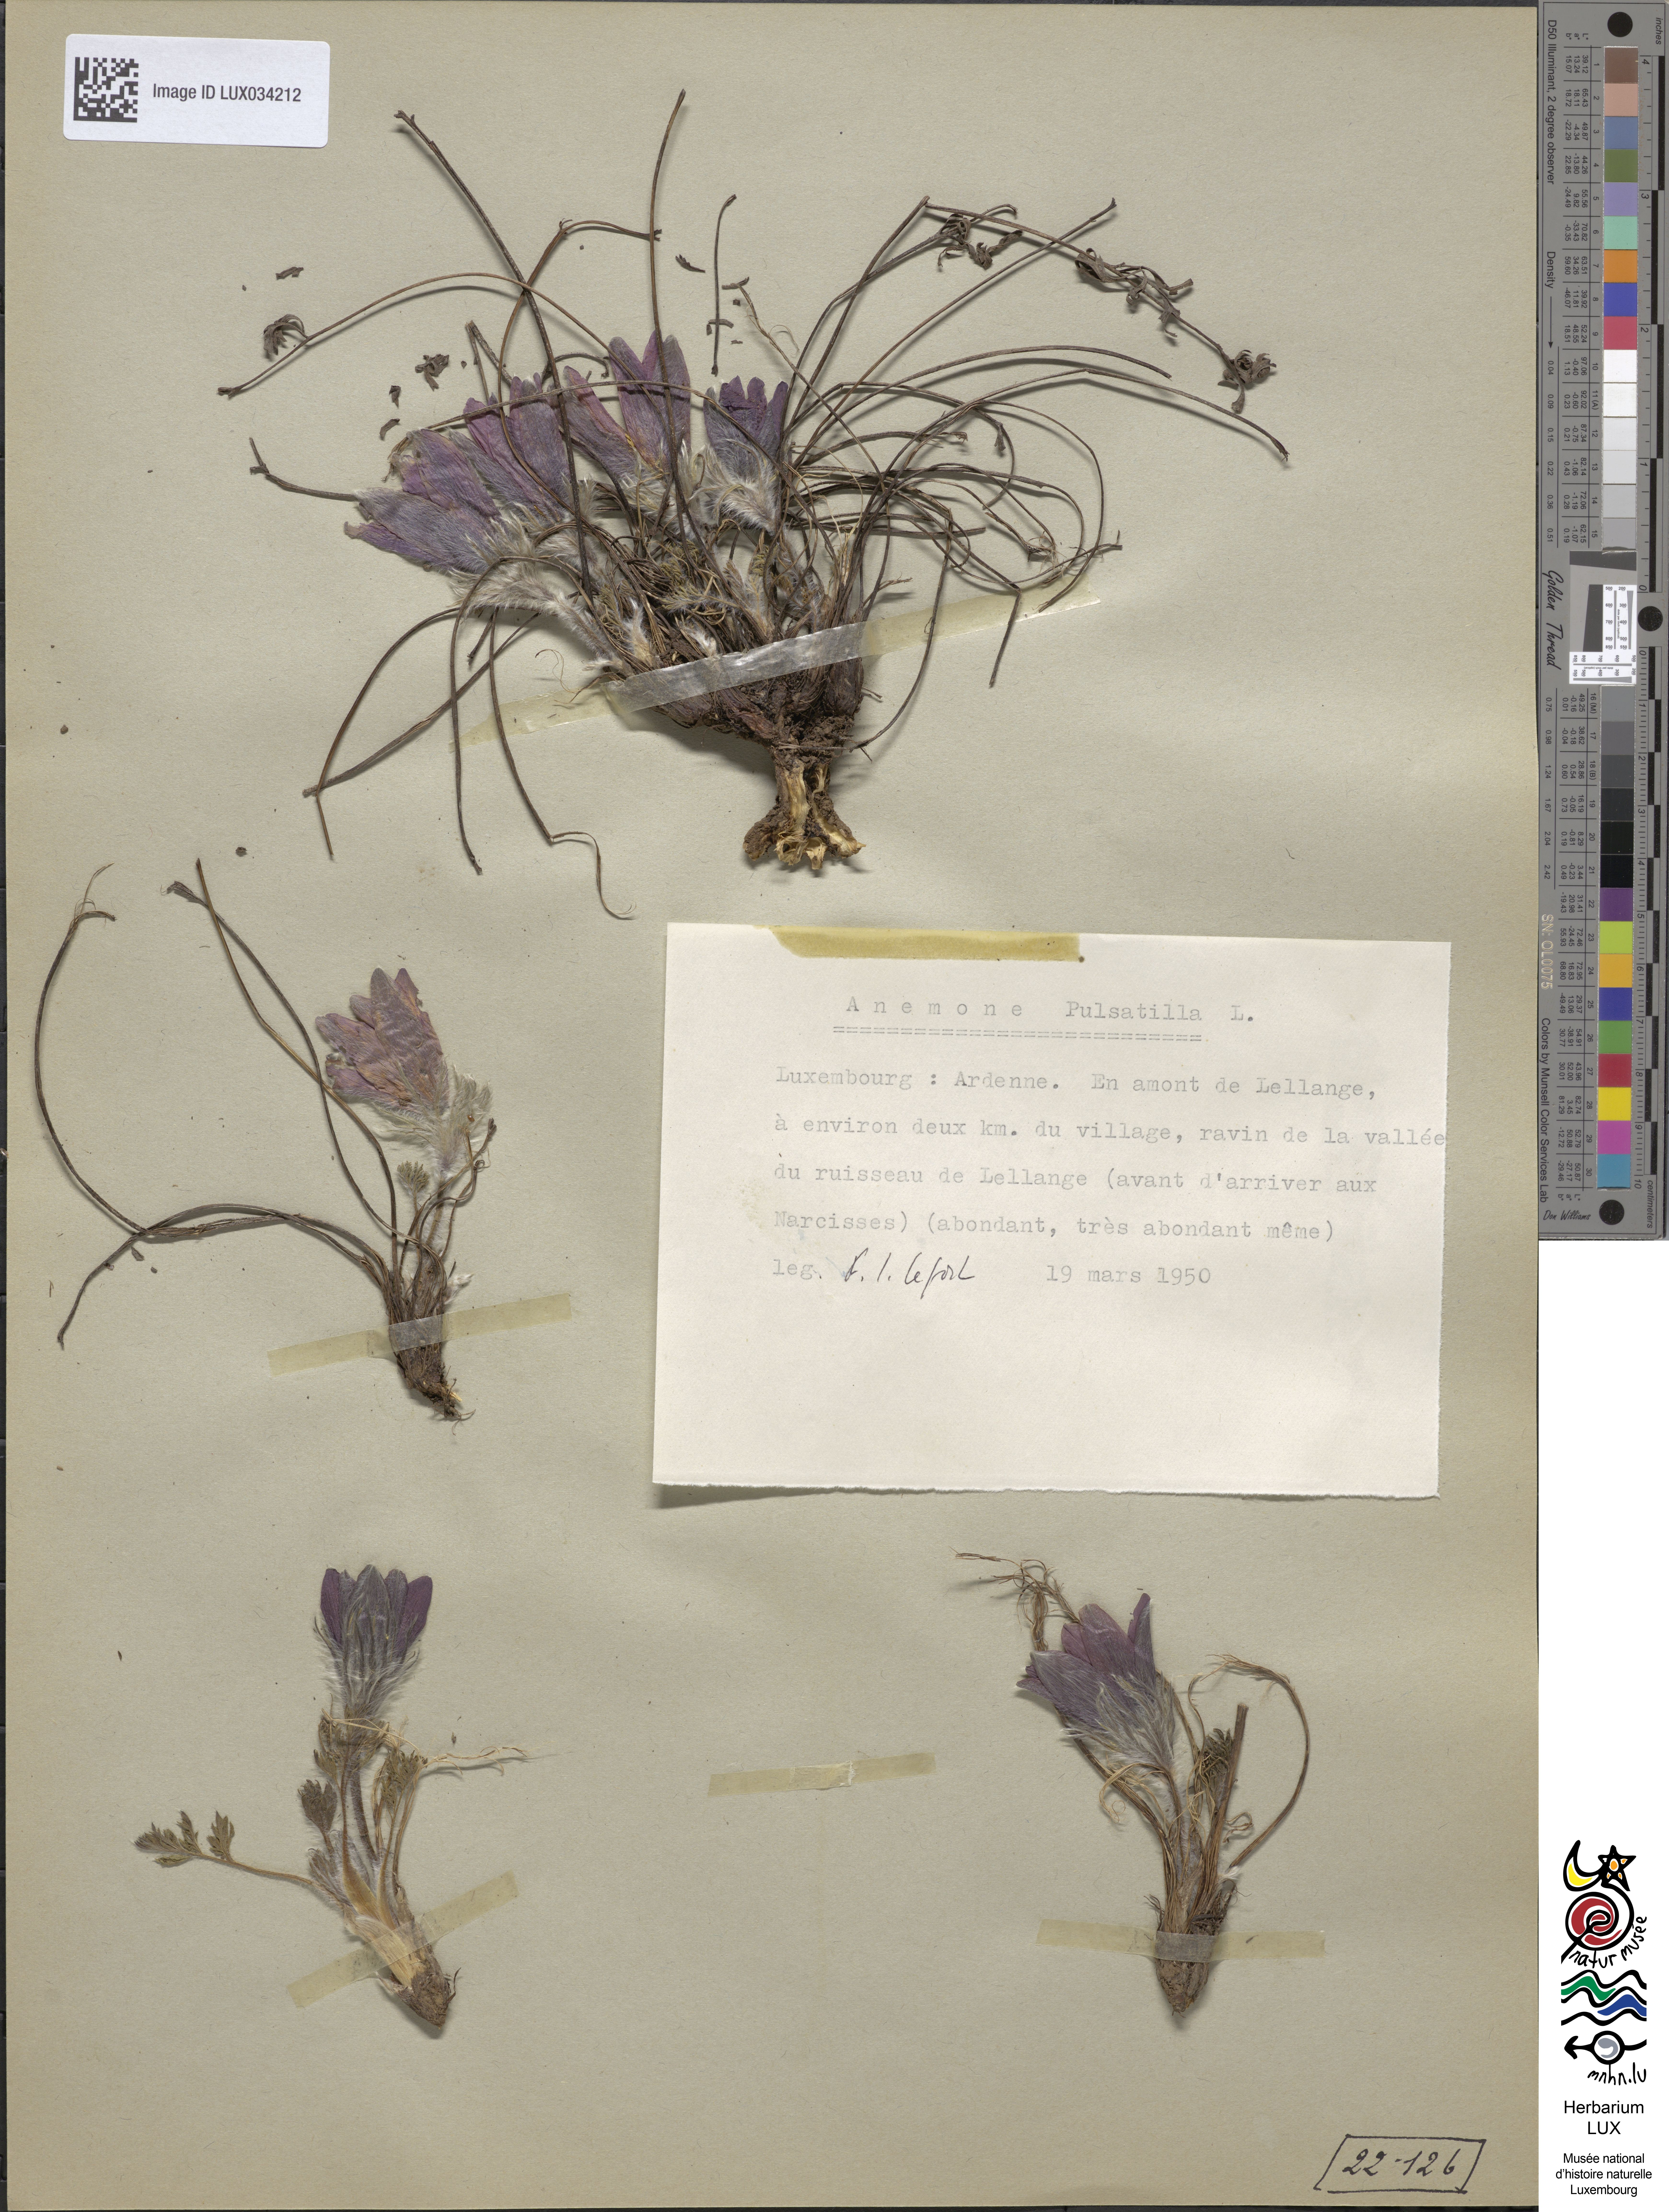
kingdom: Plantae
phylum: Tracheophyta
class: Magnoliopsida
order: Ranunculales
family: Ranunculaceae
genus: Pulsatilla
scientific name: Pulsatilla vulgaris
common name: Pasqueflower
